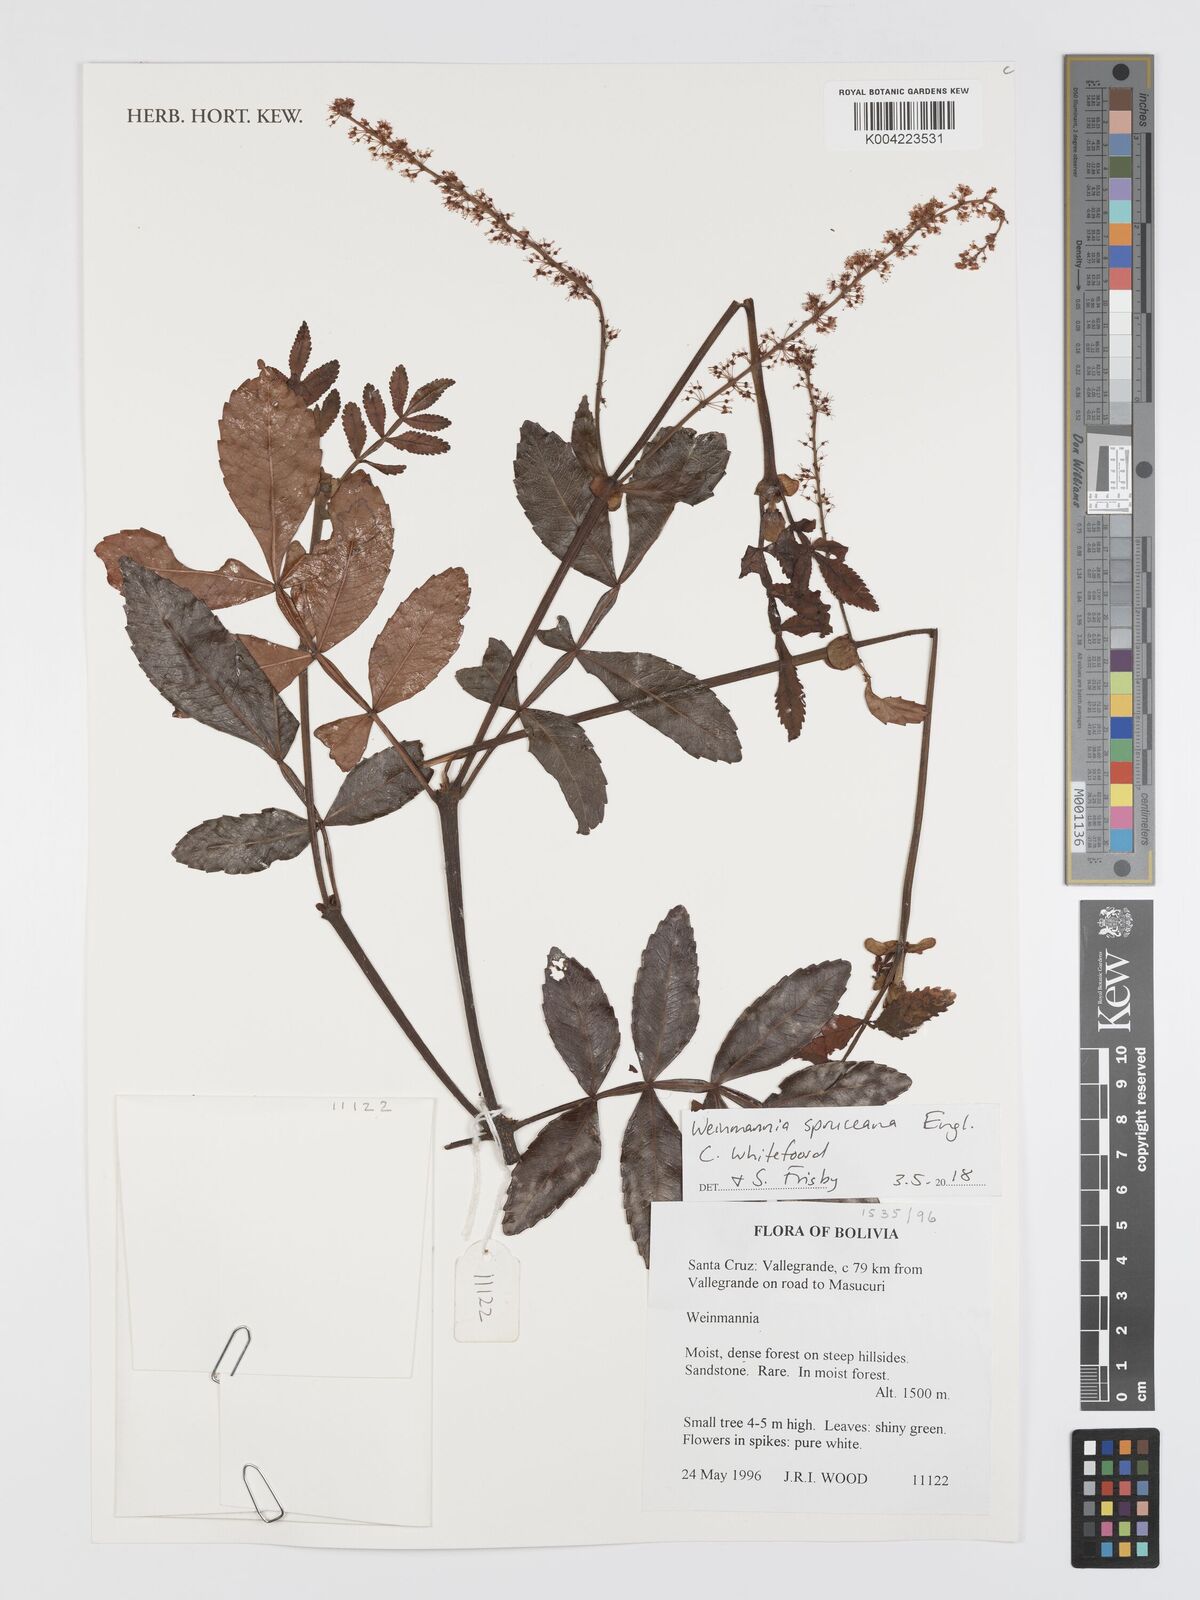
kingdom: Plantae
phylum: Tracheophyta
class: Magnoliopsida
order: Oxalidales
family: Cunoniaceae
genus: Weinmannia
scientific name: Weinmannia spruceana
